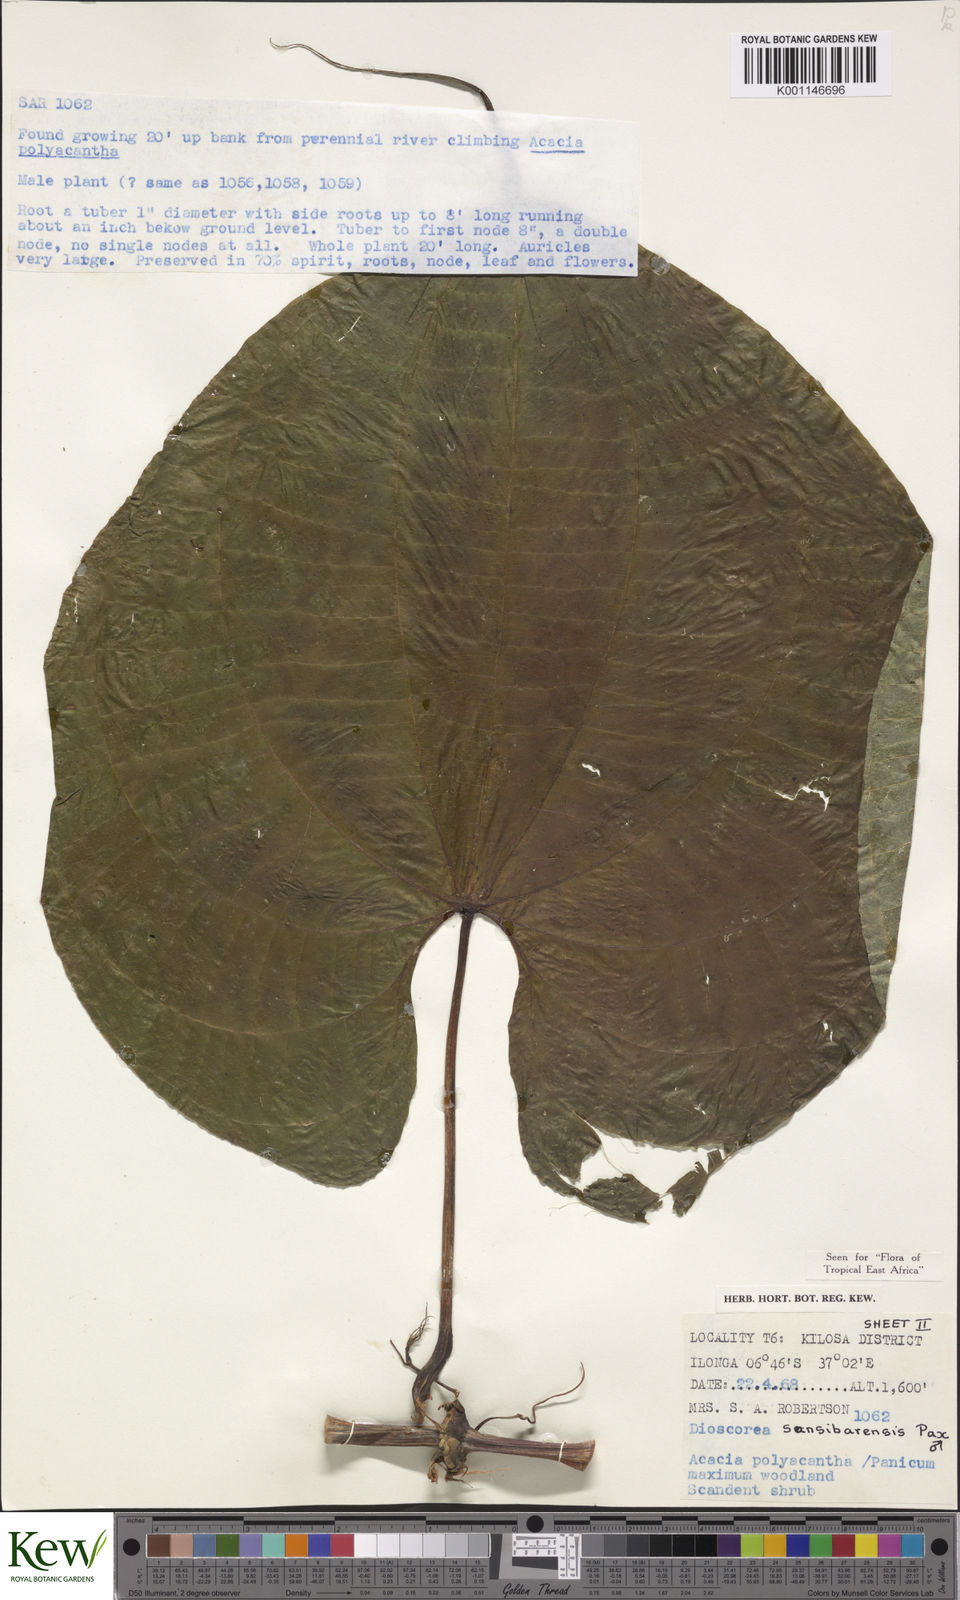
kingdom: Plantae
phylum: Tracheophyta
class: Liliopsida
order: Dioscoreales
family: Dioscoreaceae
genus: Dioscorea
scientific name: Dioscorea sansibarensis
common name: Zanzibar yam
